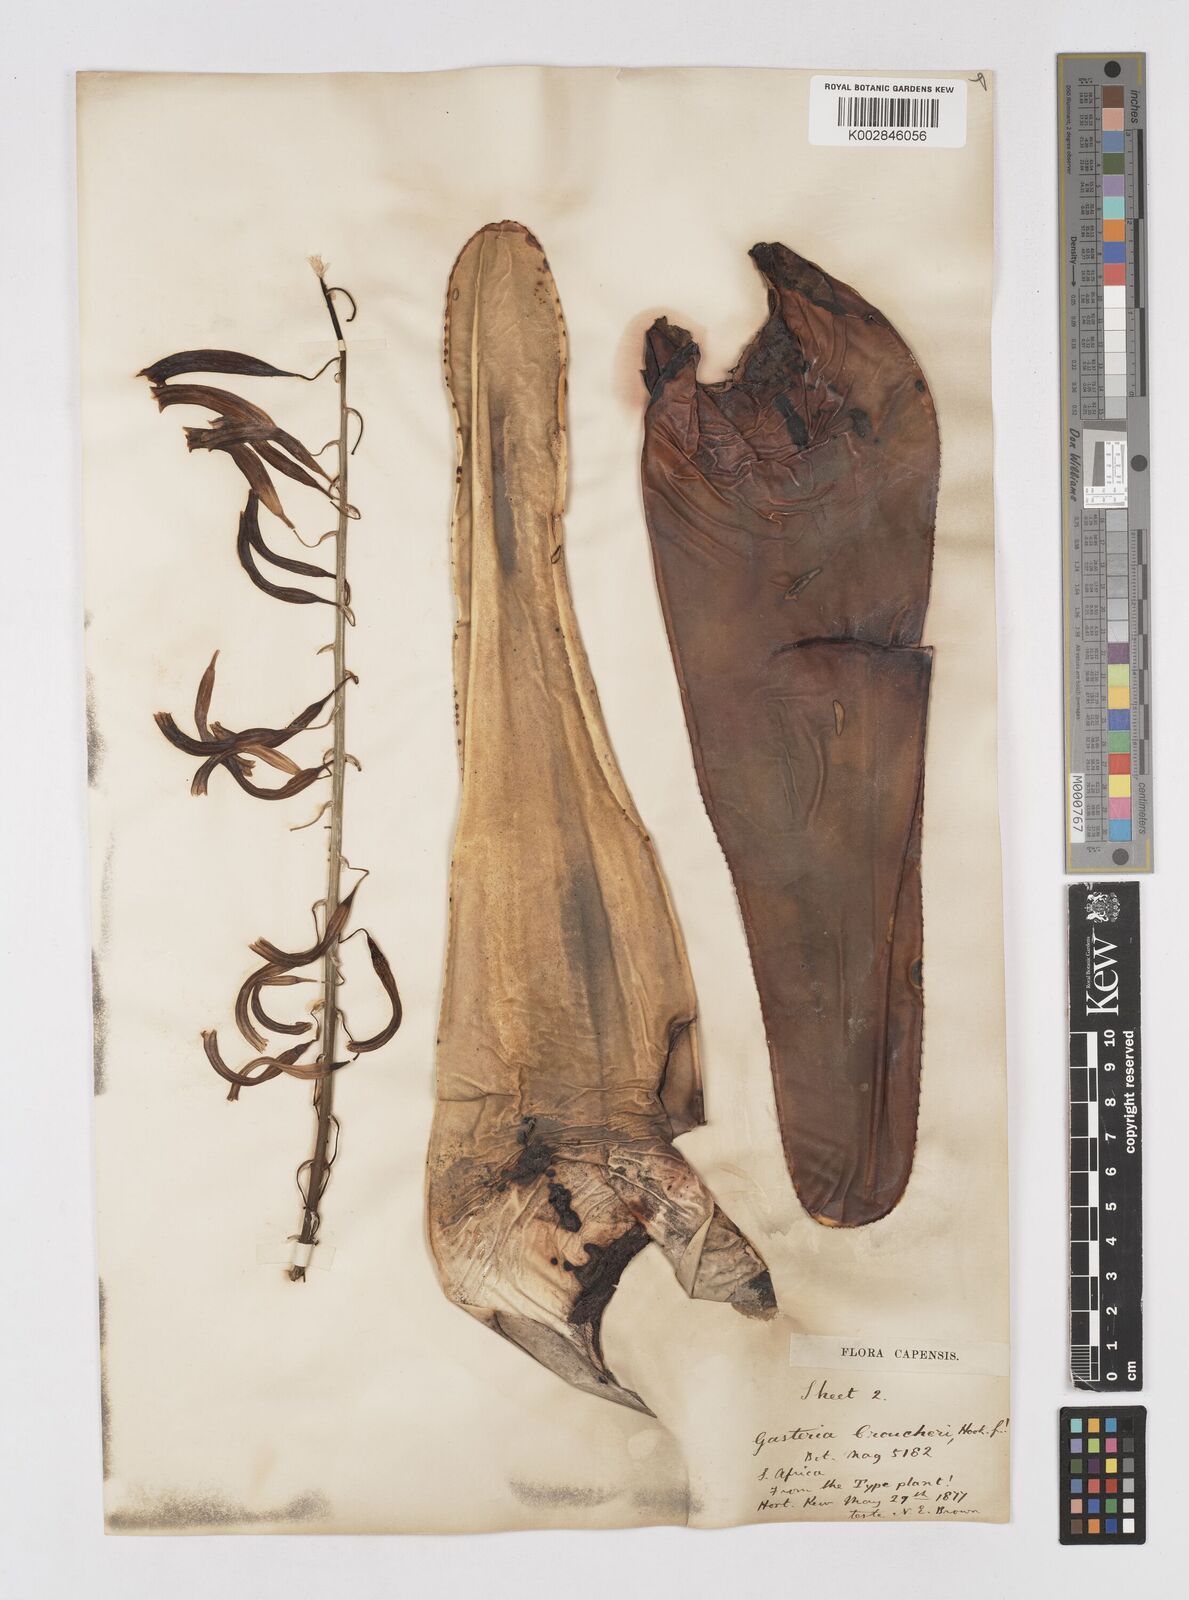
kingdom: Plantae
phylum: Tracheophyta
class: Liliopsida
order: Asparagales
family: Asphodelaceae
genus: Gasteria
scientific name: Gasteria croucheri
